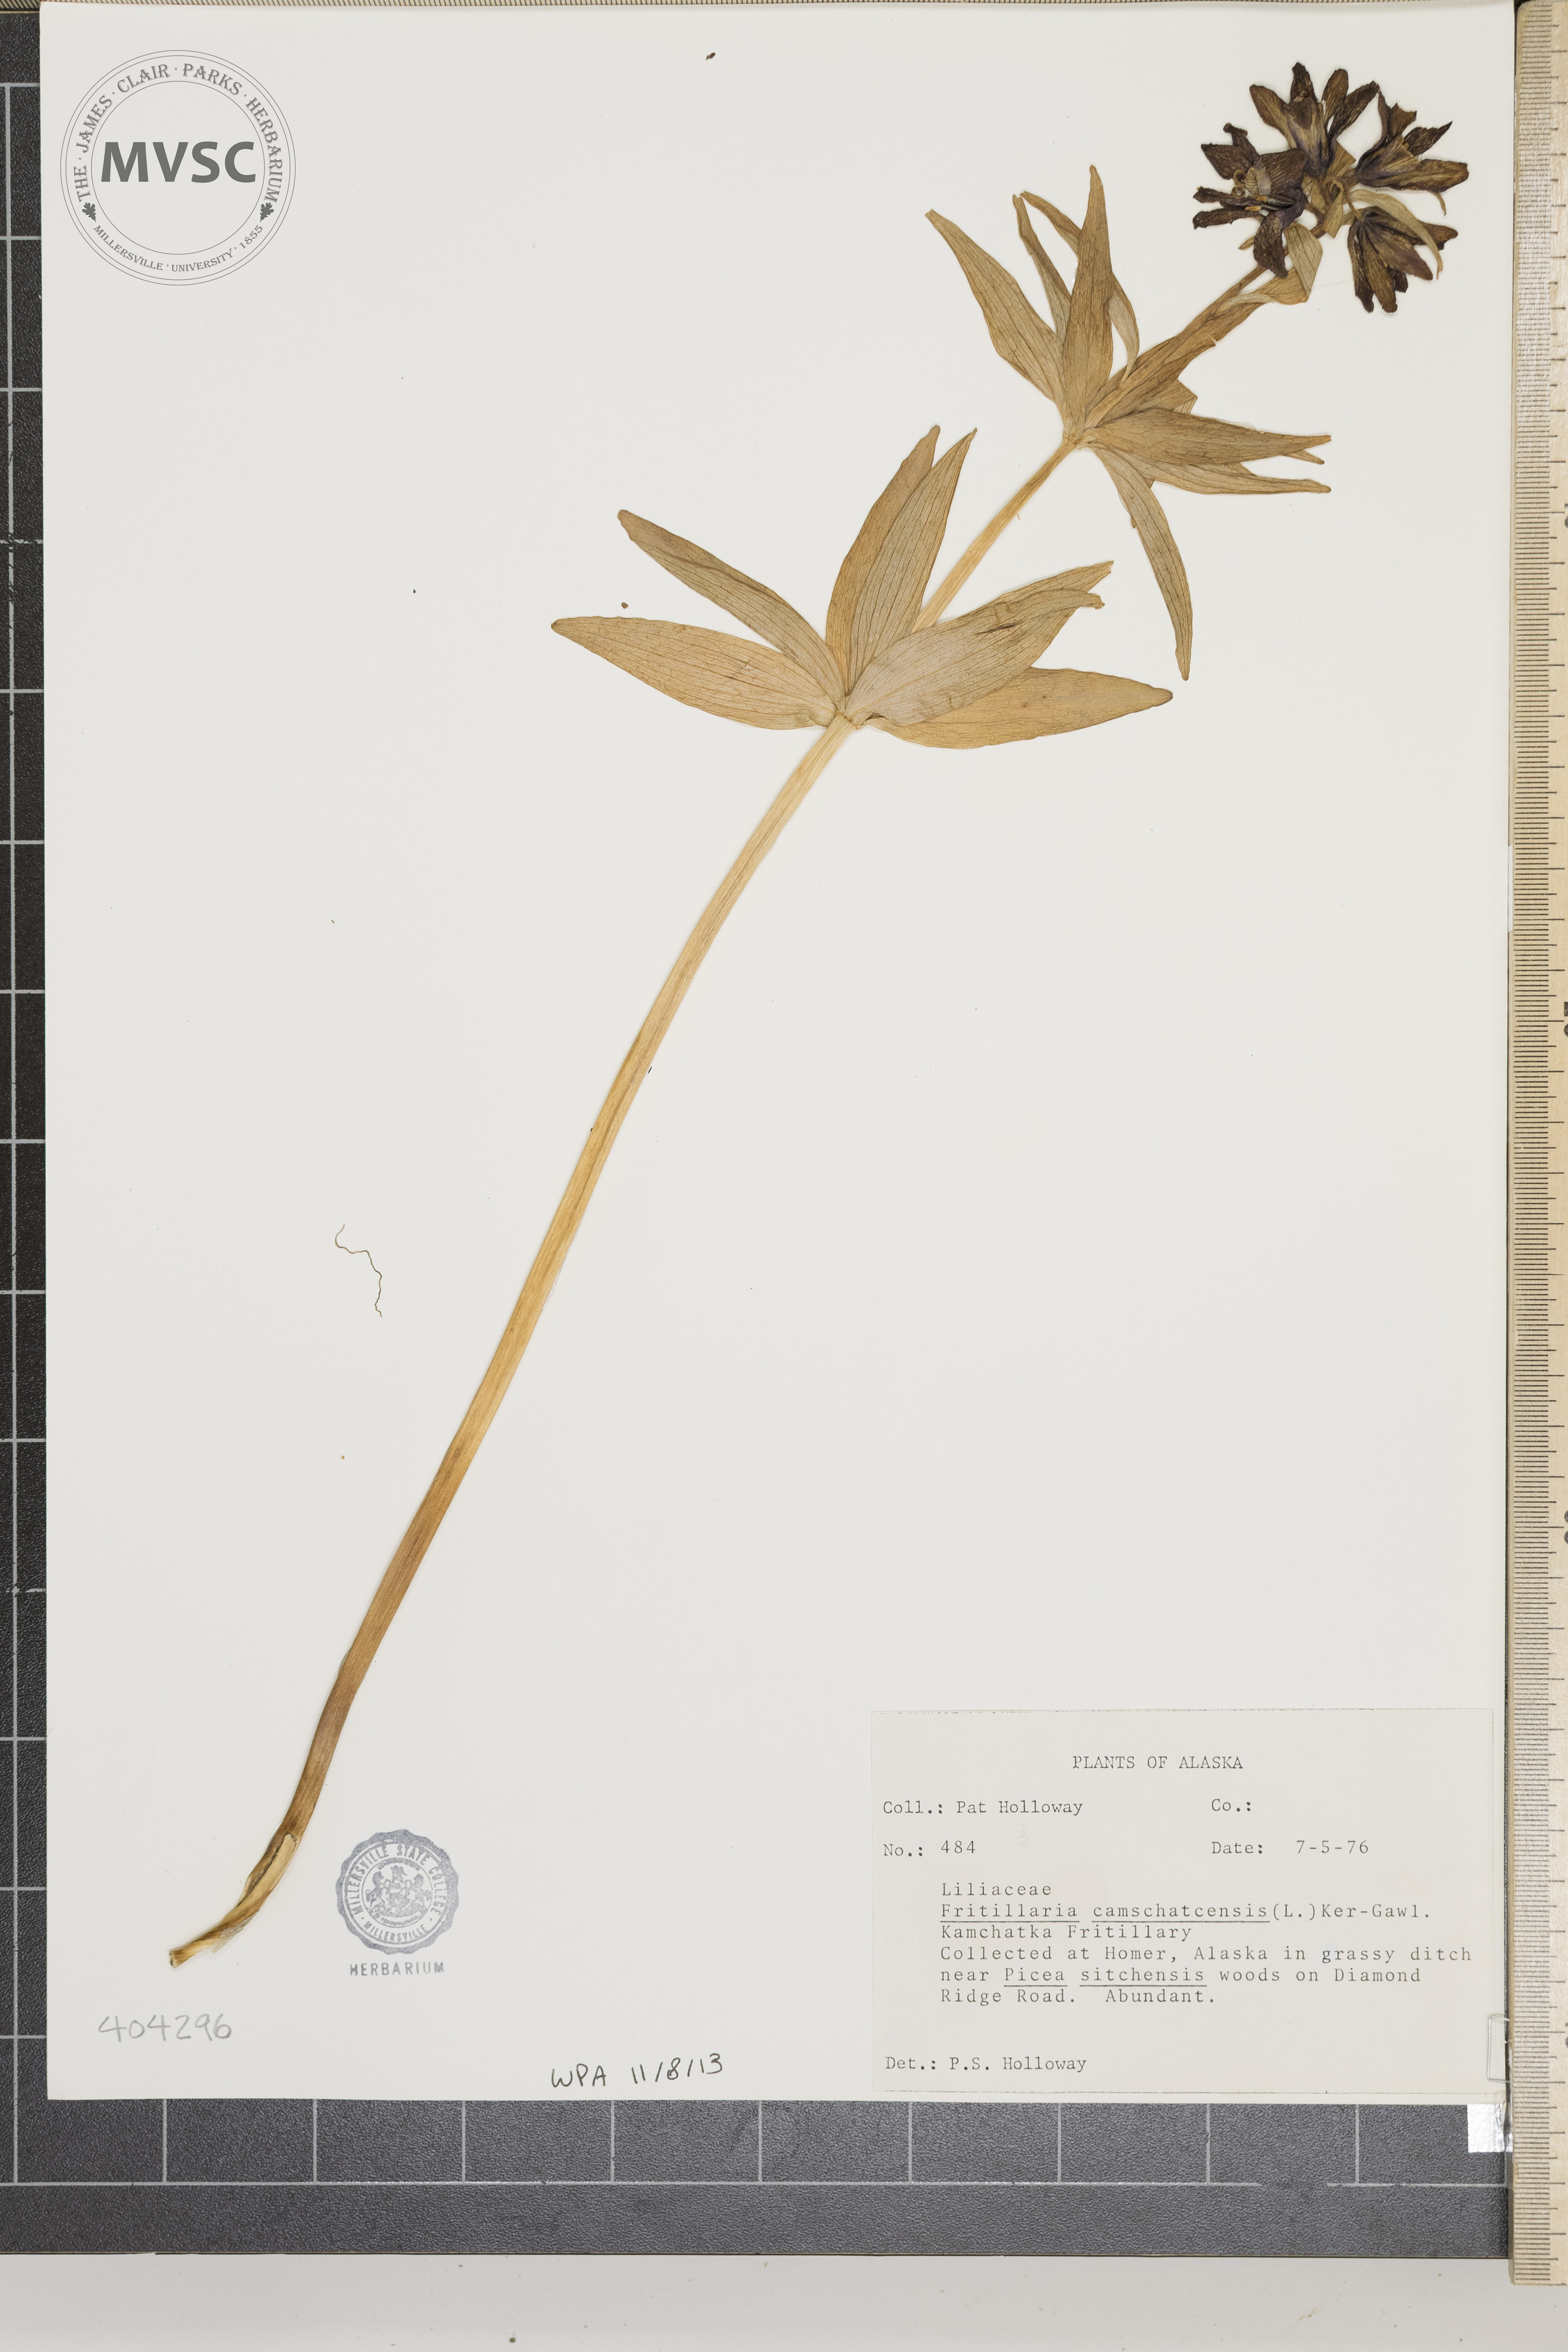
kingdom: Plantae
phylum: Tracheophyta
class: Liliopsida
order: Liliales
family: Liliaceae
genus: Fritillaria
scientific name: Fritillaria camschatcensis
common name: Kamchatka Fritillary
